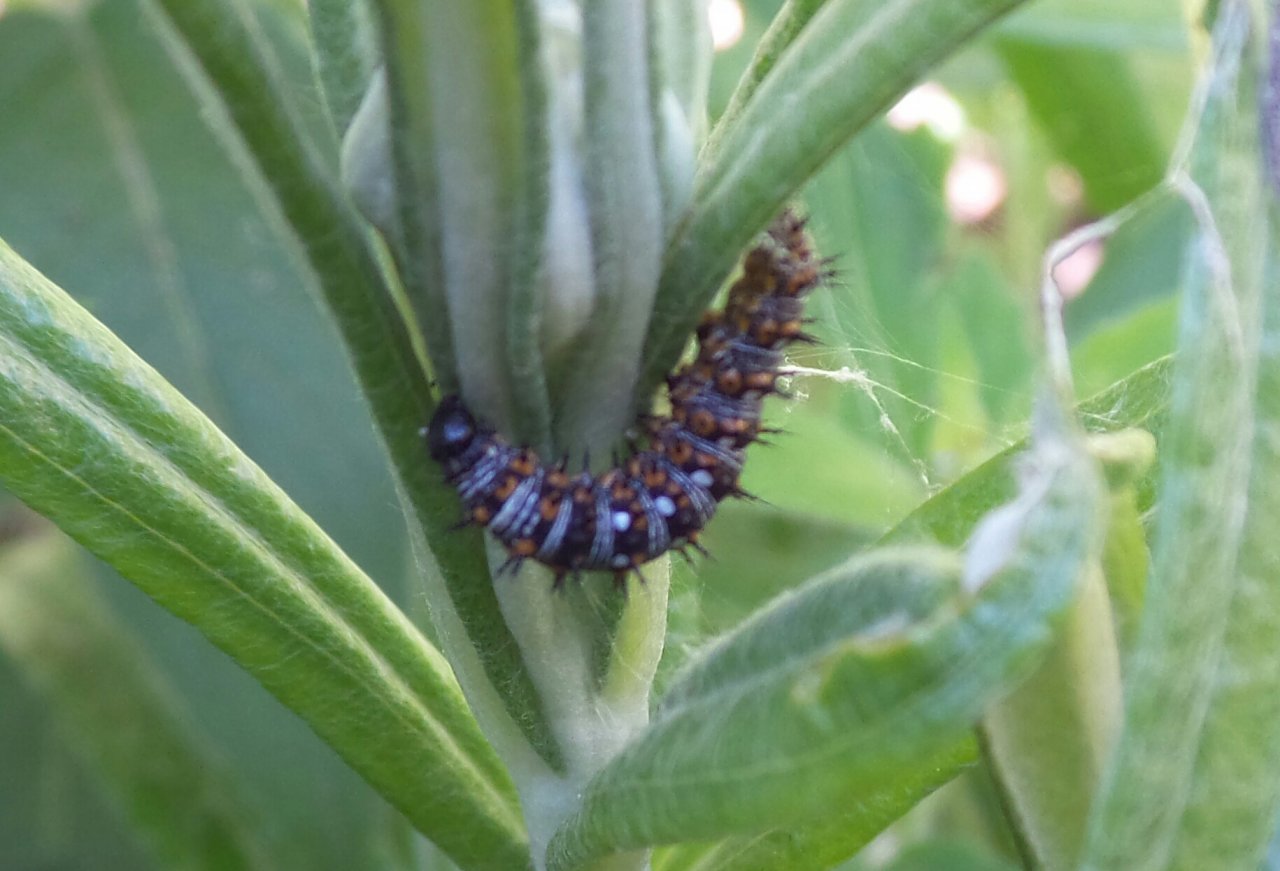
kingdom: Animalia
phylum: Arthropoda
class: Insecta
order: Lepidoptera
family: Nymphalidae
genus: Vanessa
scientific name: Vanessa virginiensis
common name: American Lady
